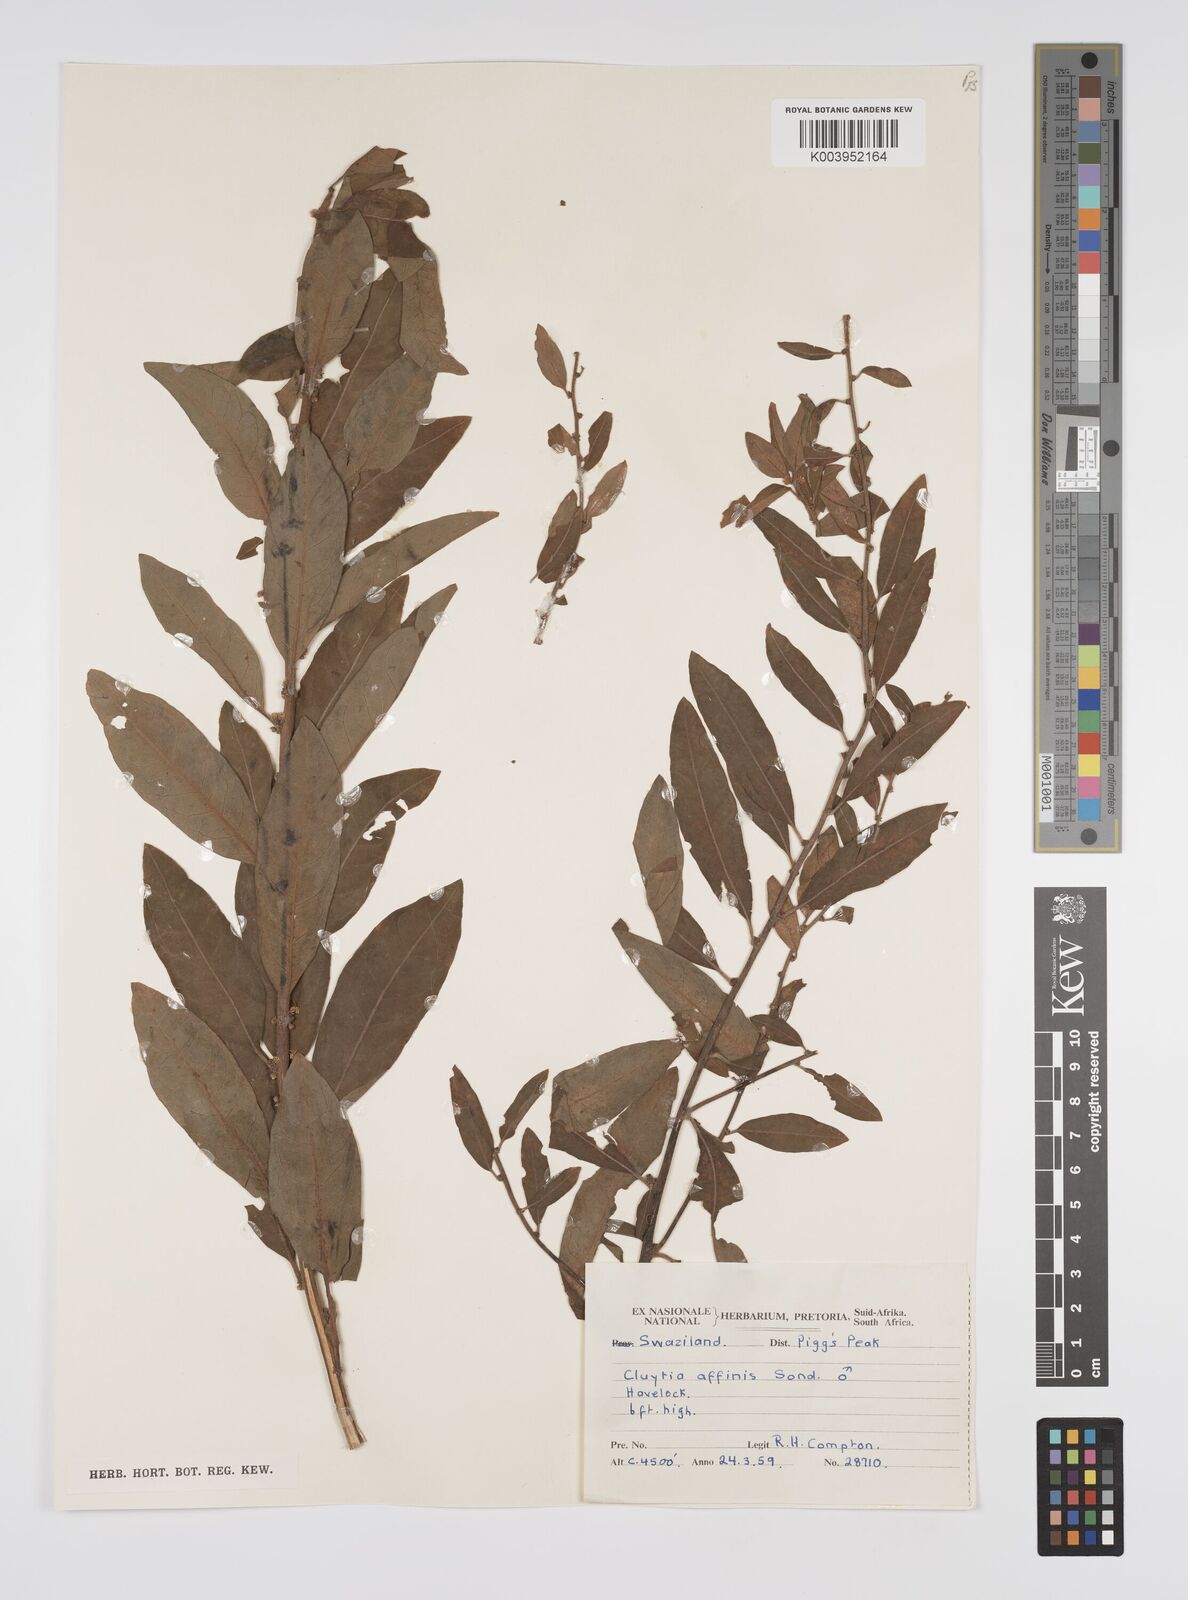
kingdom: Plantae
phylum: Tracheophyta
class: Magnoliopsida
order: Malpighiales
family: Peraceae
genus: Clutia
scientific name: Clutia affinis
